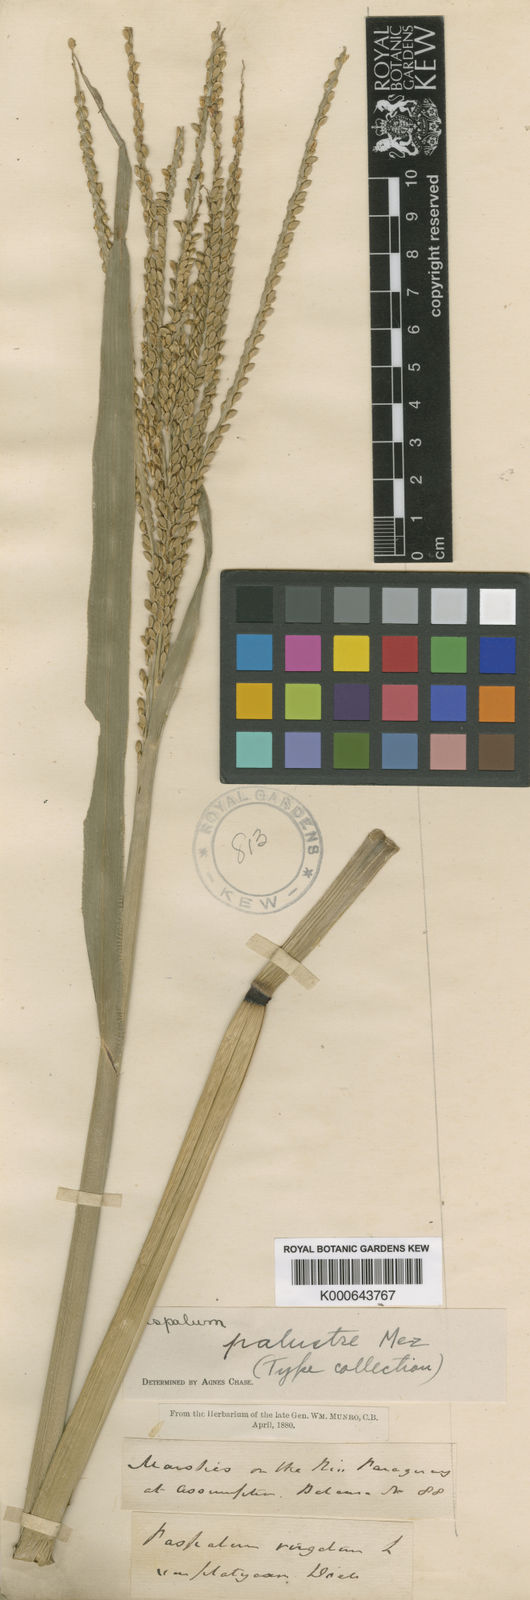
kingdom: Plantae
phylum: Tracheophyta
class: Liliopsida
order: Poales
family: Poaceae
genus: Paspalum
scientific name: Paspalum palustre
